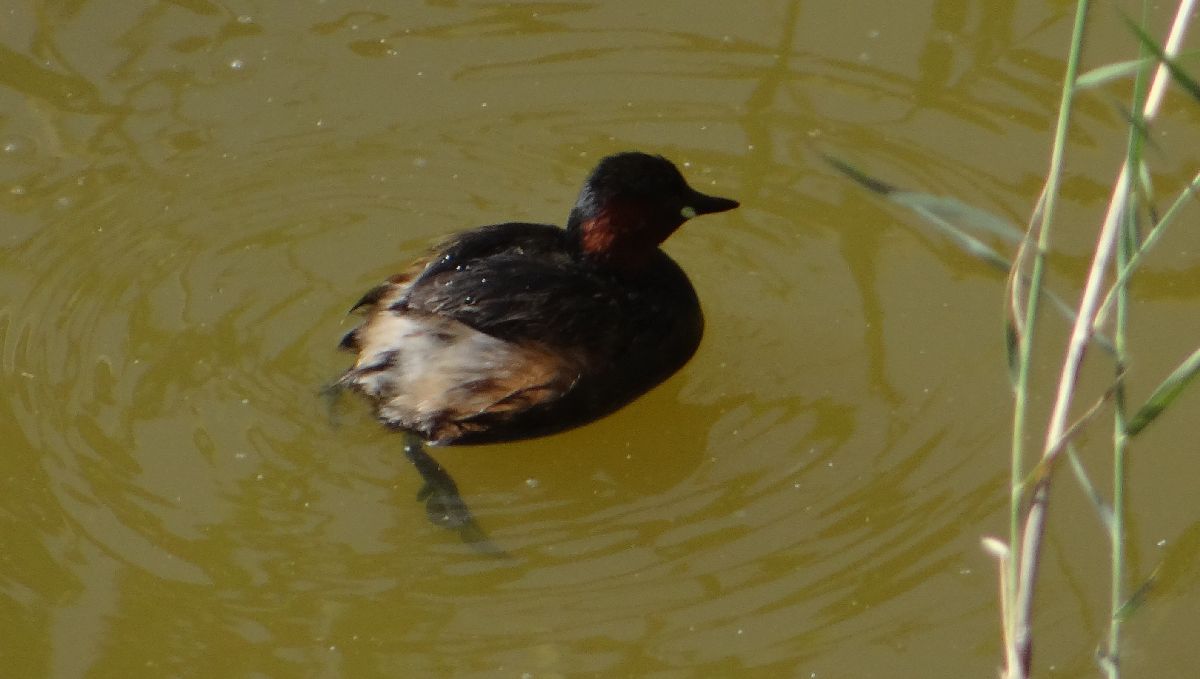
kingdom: Animalia
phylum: Chordata
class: Aves
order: Podicipediformes
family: Podicipedidae
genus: Tachybaptus
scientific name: Tachybaptus ruficollis
